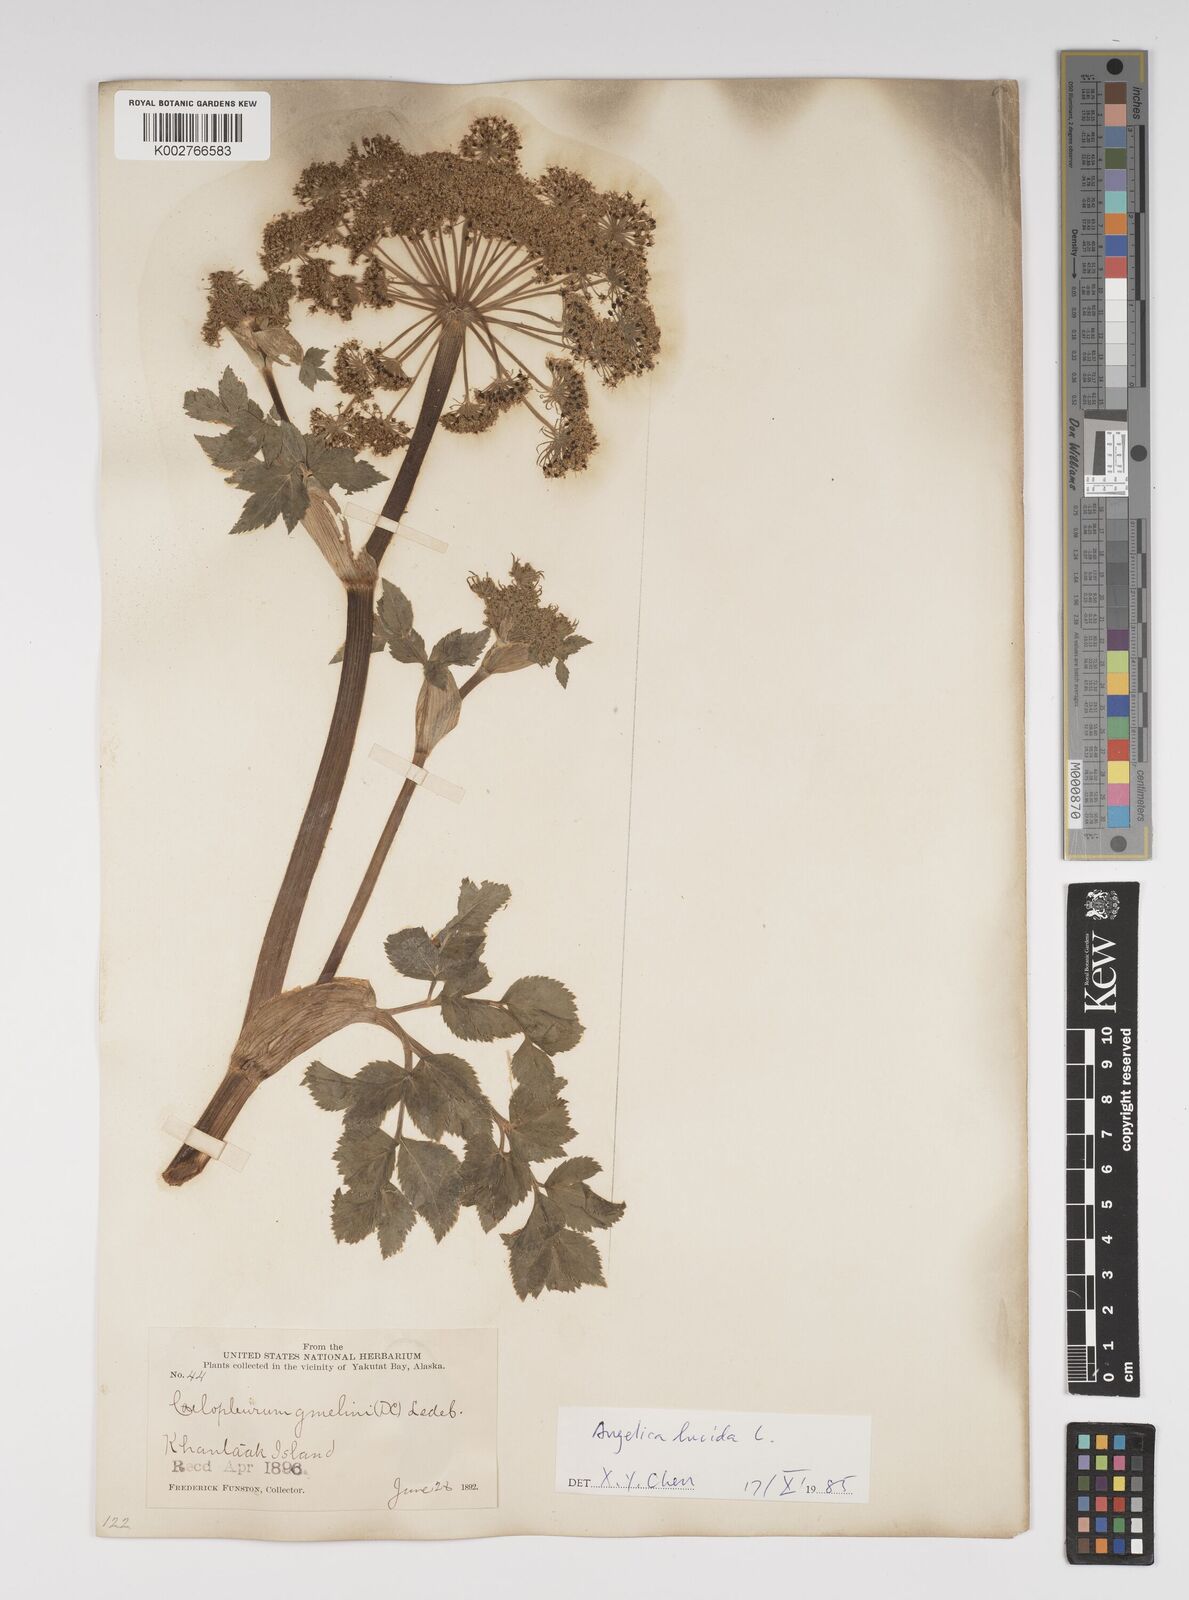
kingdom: Plantae
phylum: Tracheophyta
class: Magnoliopsida
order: Apiales
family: Apiaceae
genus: Angelica
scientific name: Angelica lucida
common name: Seabeach angelica
